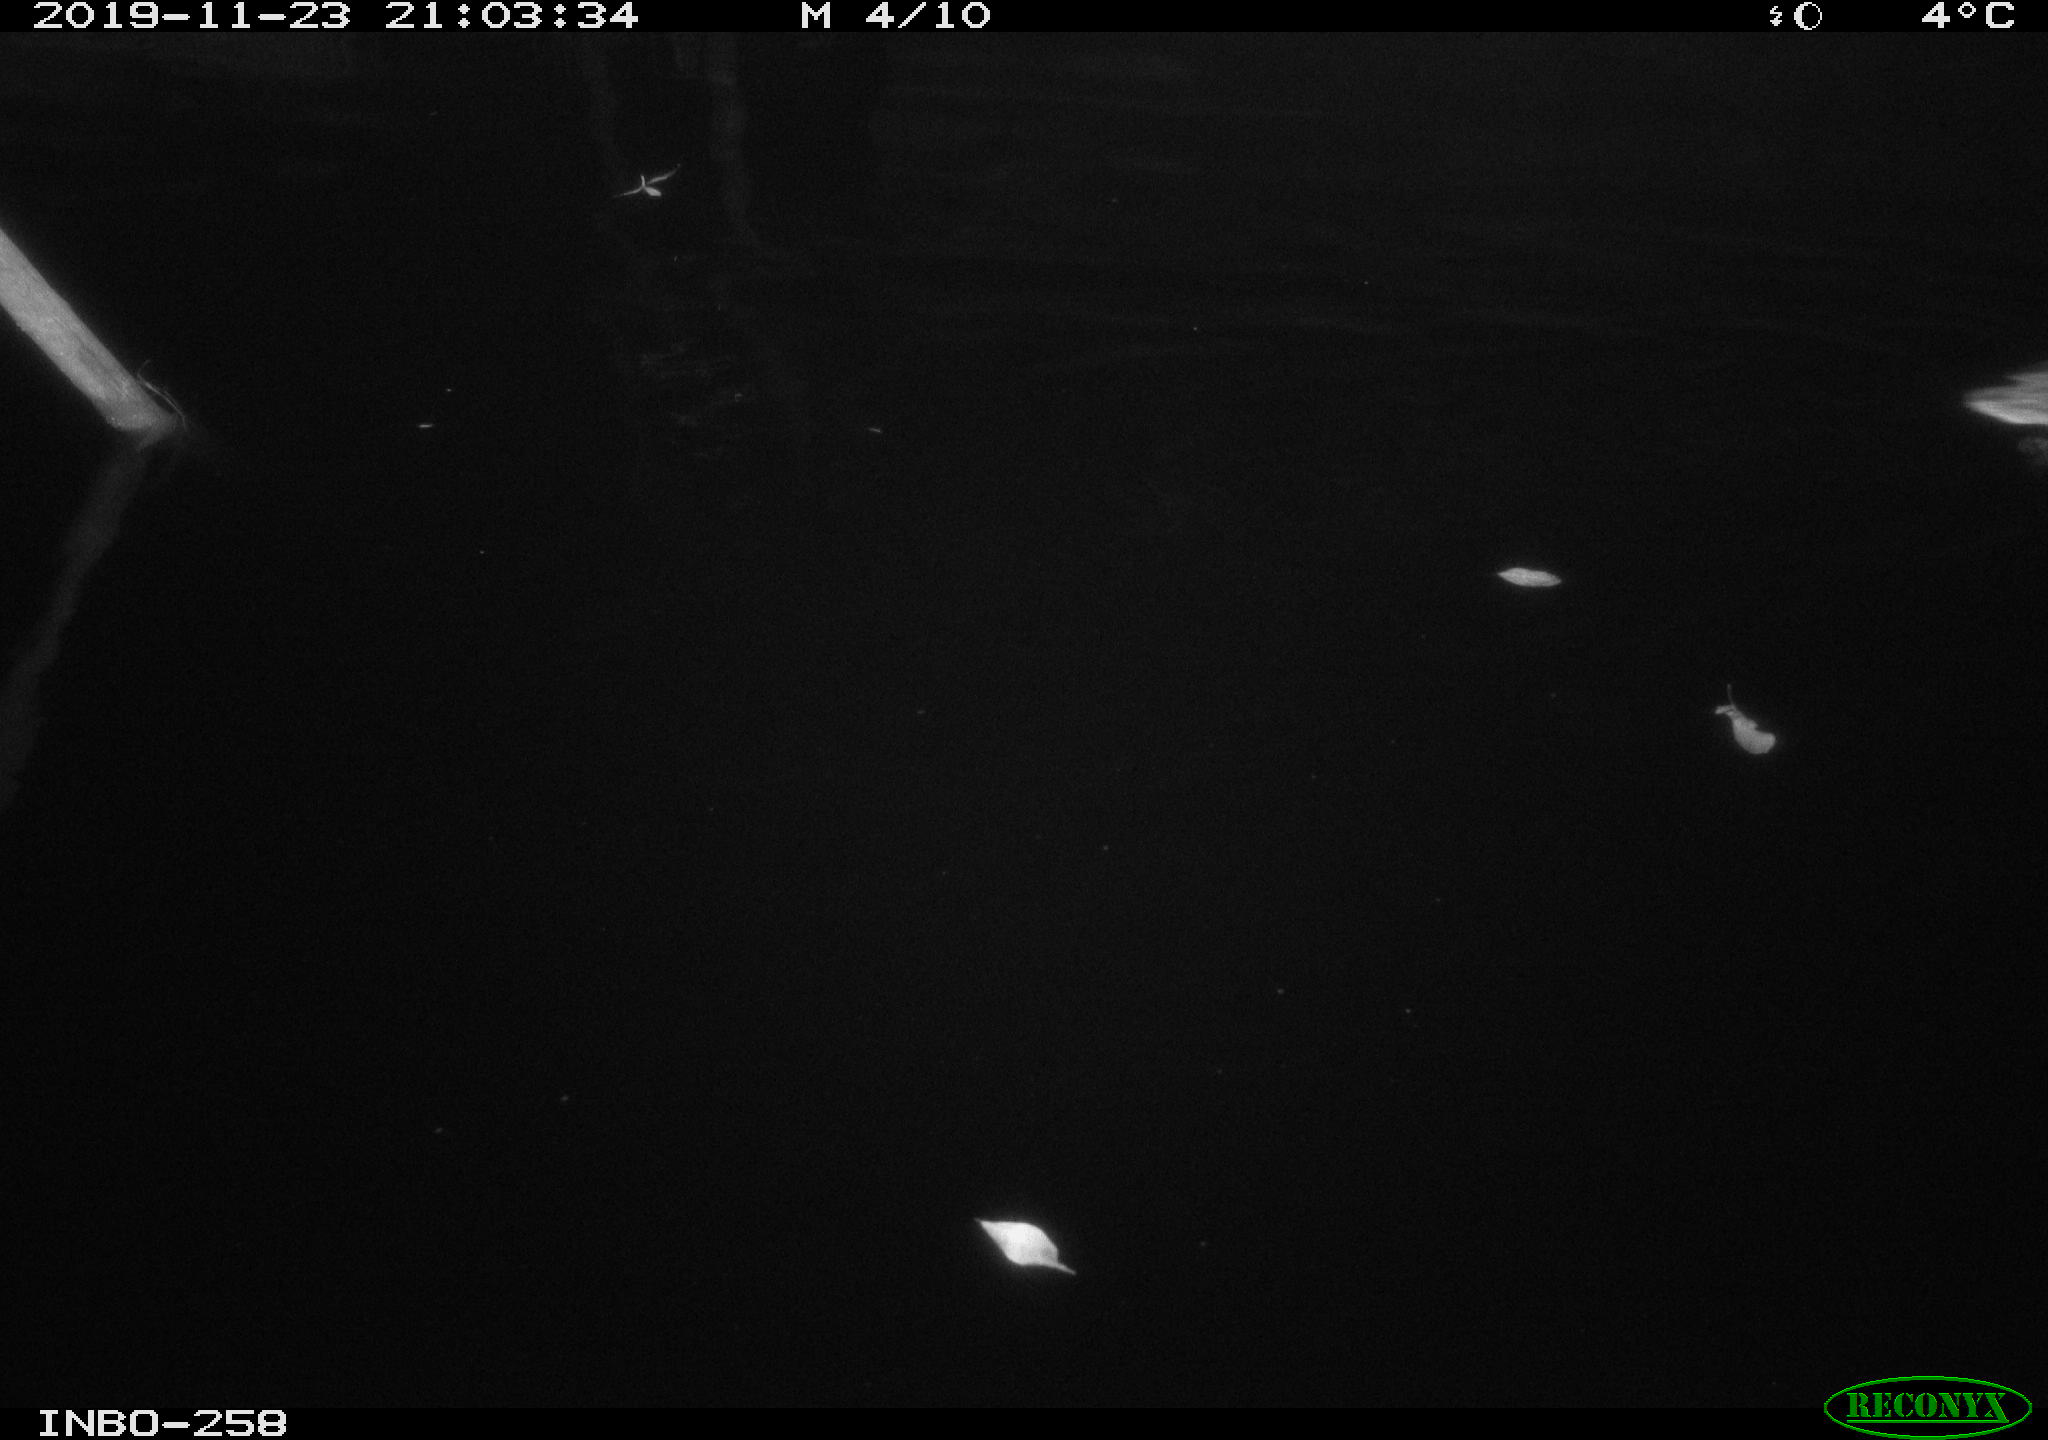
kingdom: Animalia
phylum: Chordata
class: Aves
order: Anseriformes
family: Anatidae
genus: Anas
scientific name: Anas platyrhynchos
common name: Mallard
